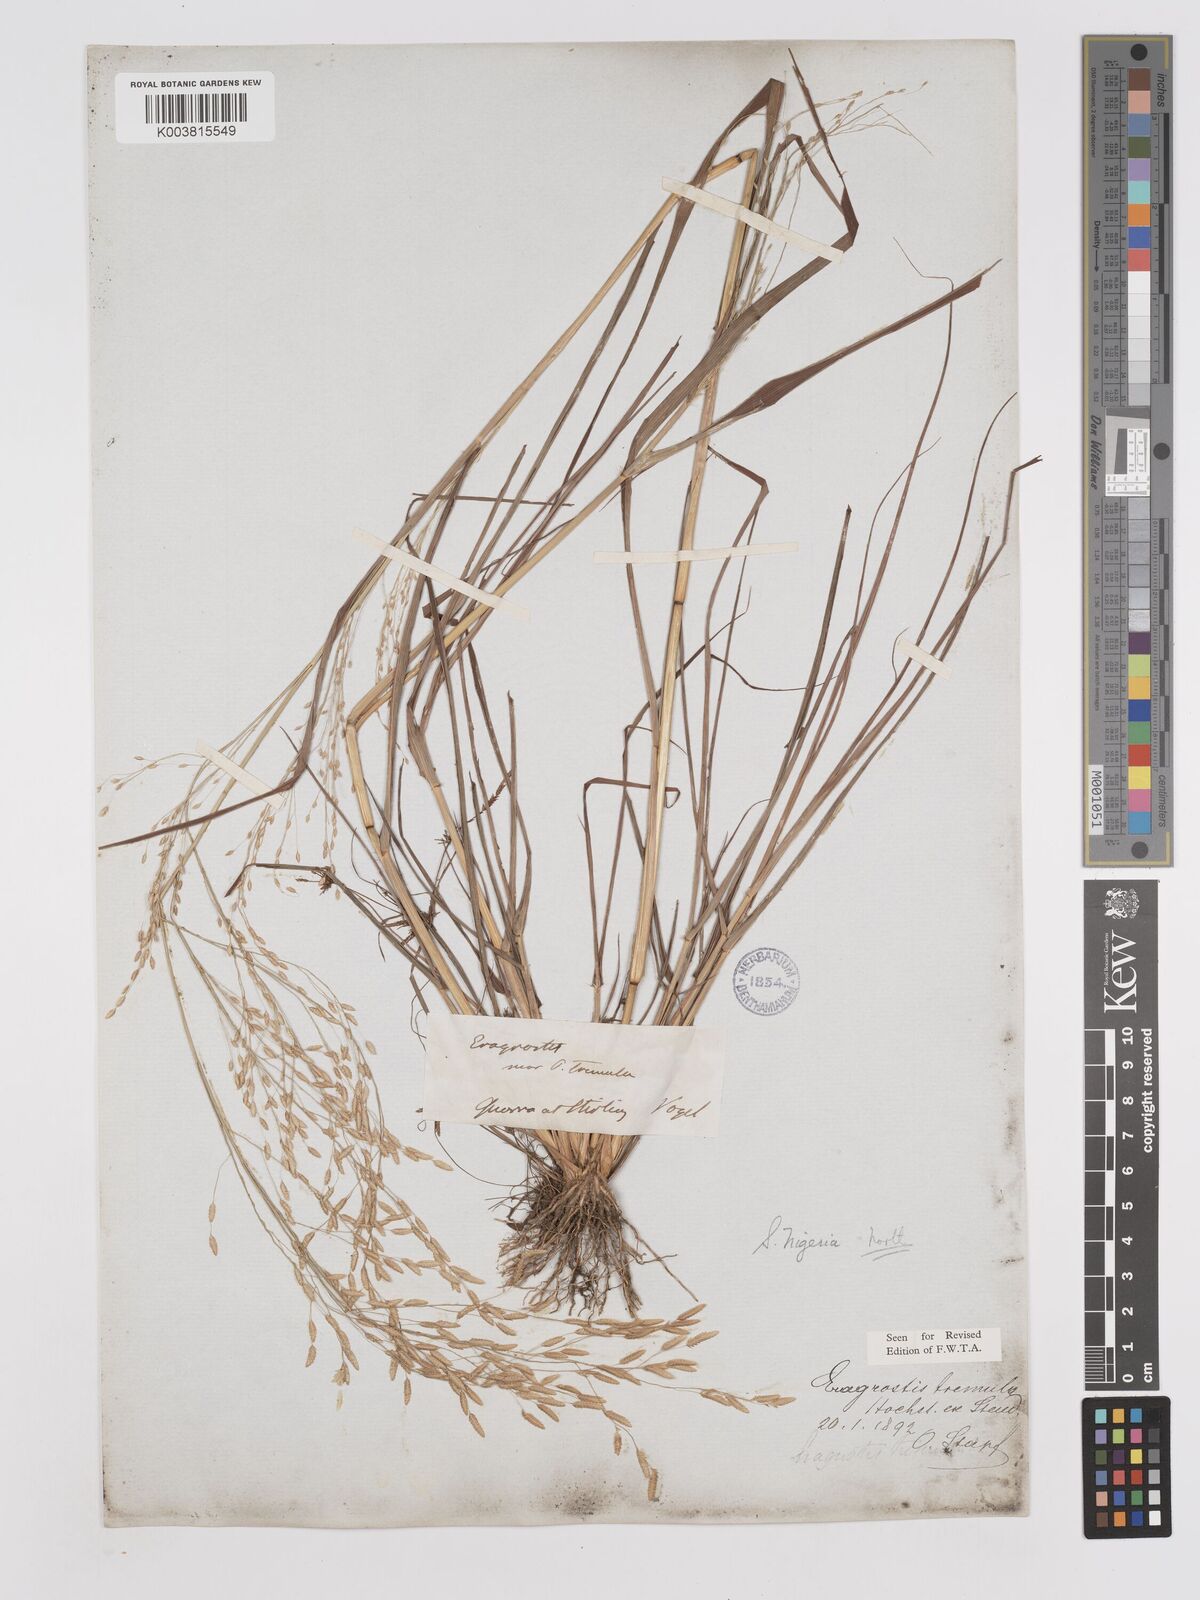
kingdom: Plantae
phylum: Tracheophyta
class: Liliopsida
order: Poales
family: Poaceae
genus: Eragrostis
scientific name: Eragrostis tremula
